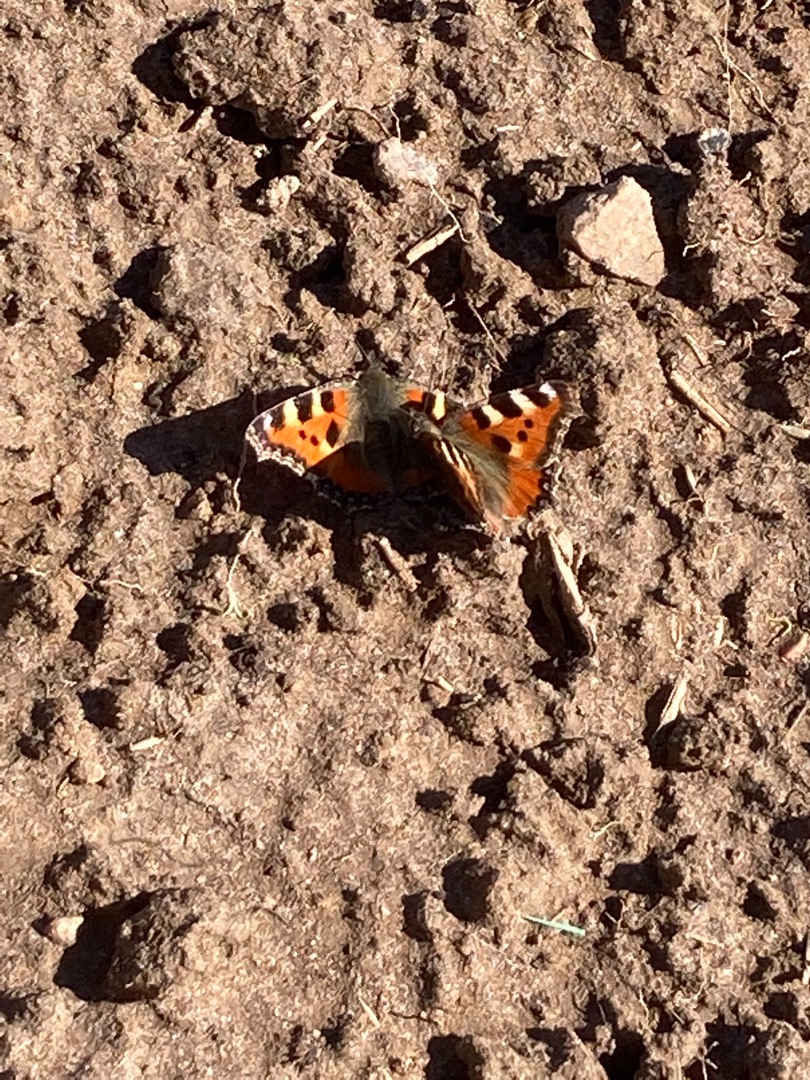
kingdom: Animalia
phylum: Arthropoda
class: Insecta
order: Lepidoptera
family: Nymphalidae
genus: Aglais
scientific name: Aglais urticae
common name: Nældens takvinge
